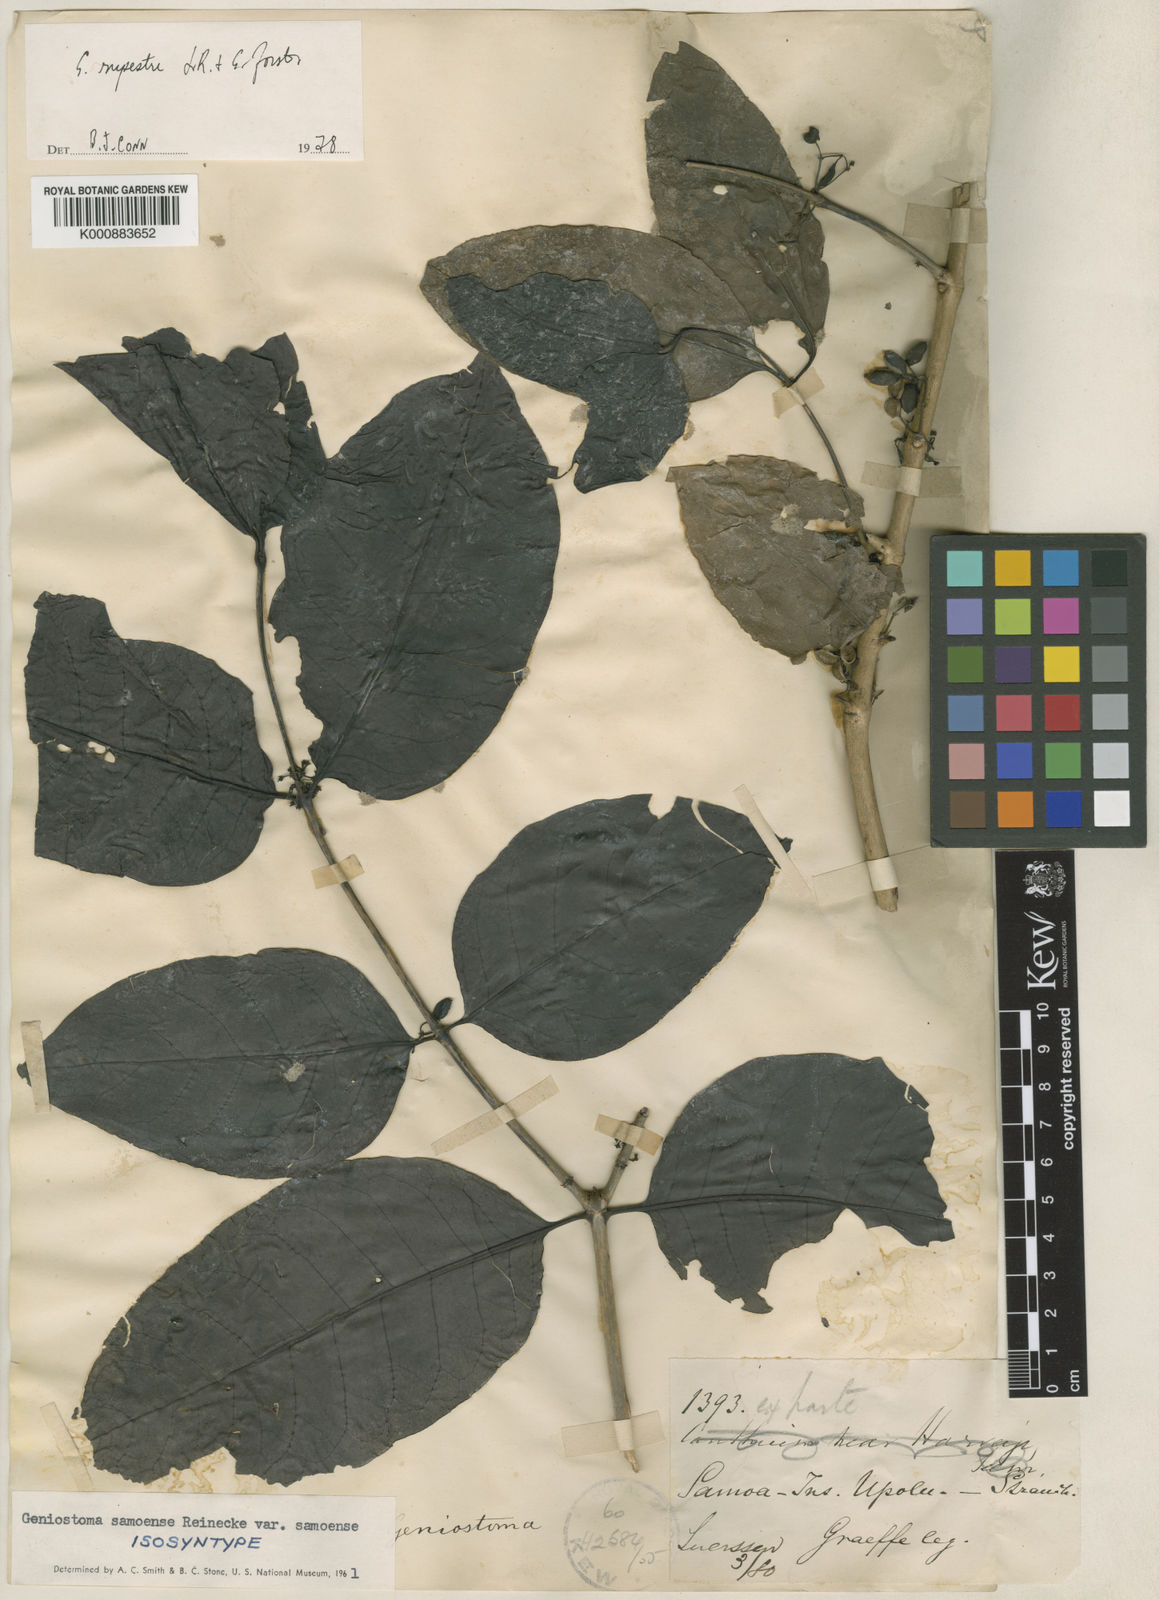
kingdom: Plantae
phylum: Tracheophyta
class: Magnoliopsida
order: Gentianales
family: Loganiaceae
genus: Geniostoma
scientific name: Geniostoma rupestre
